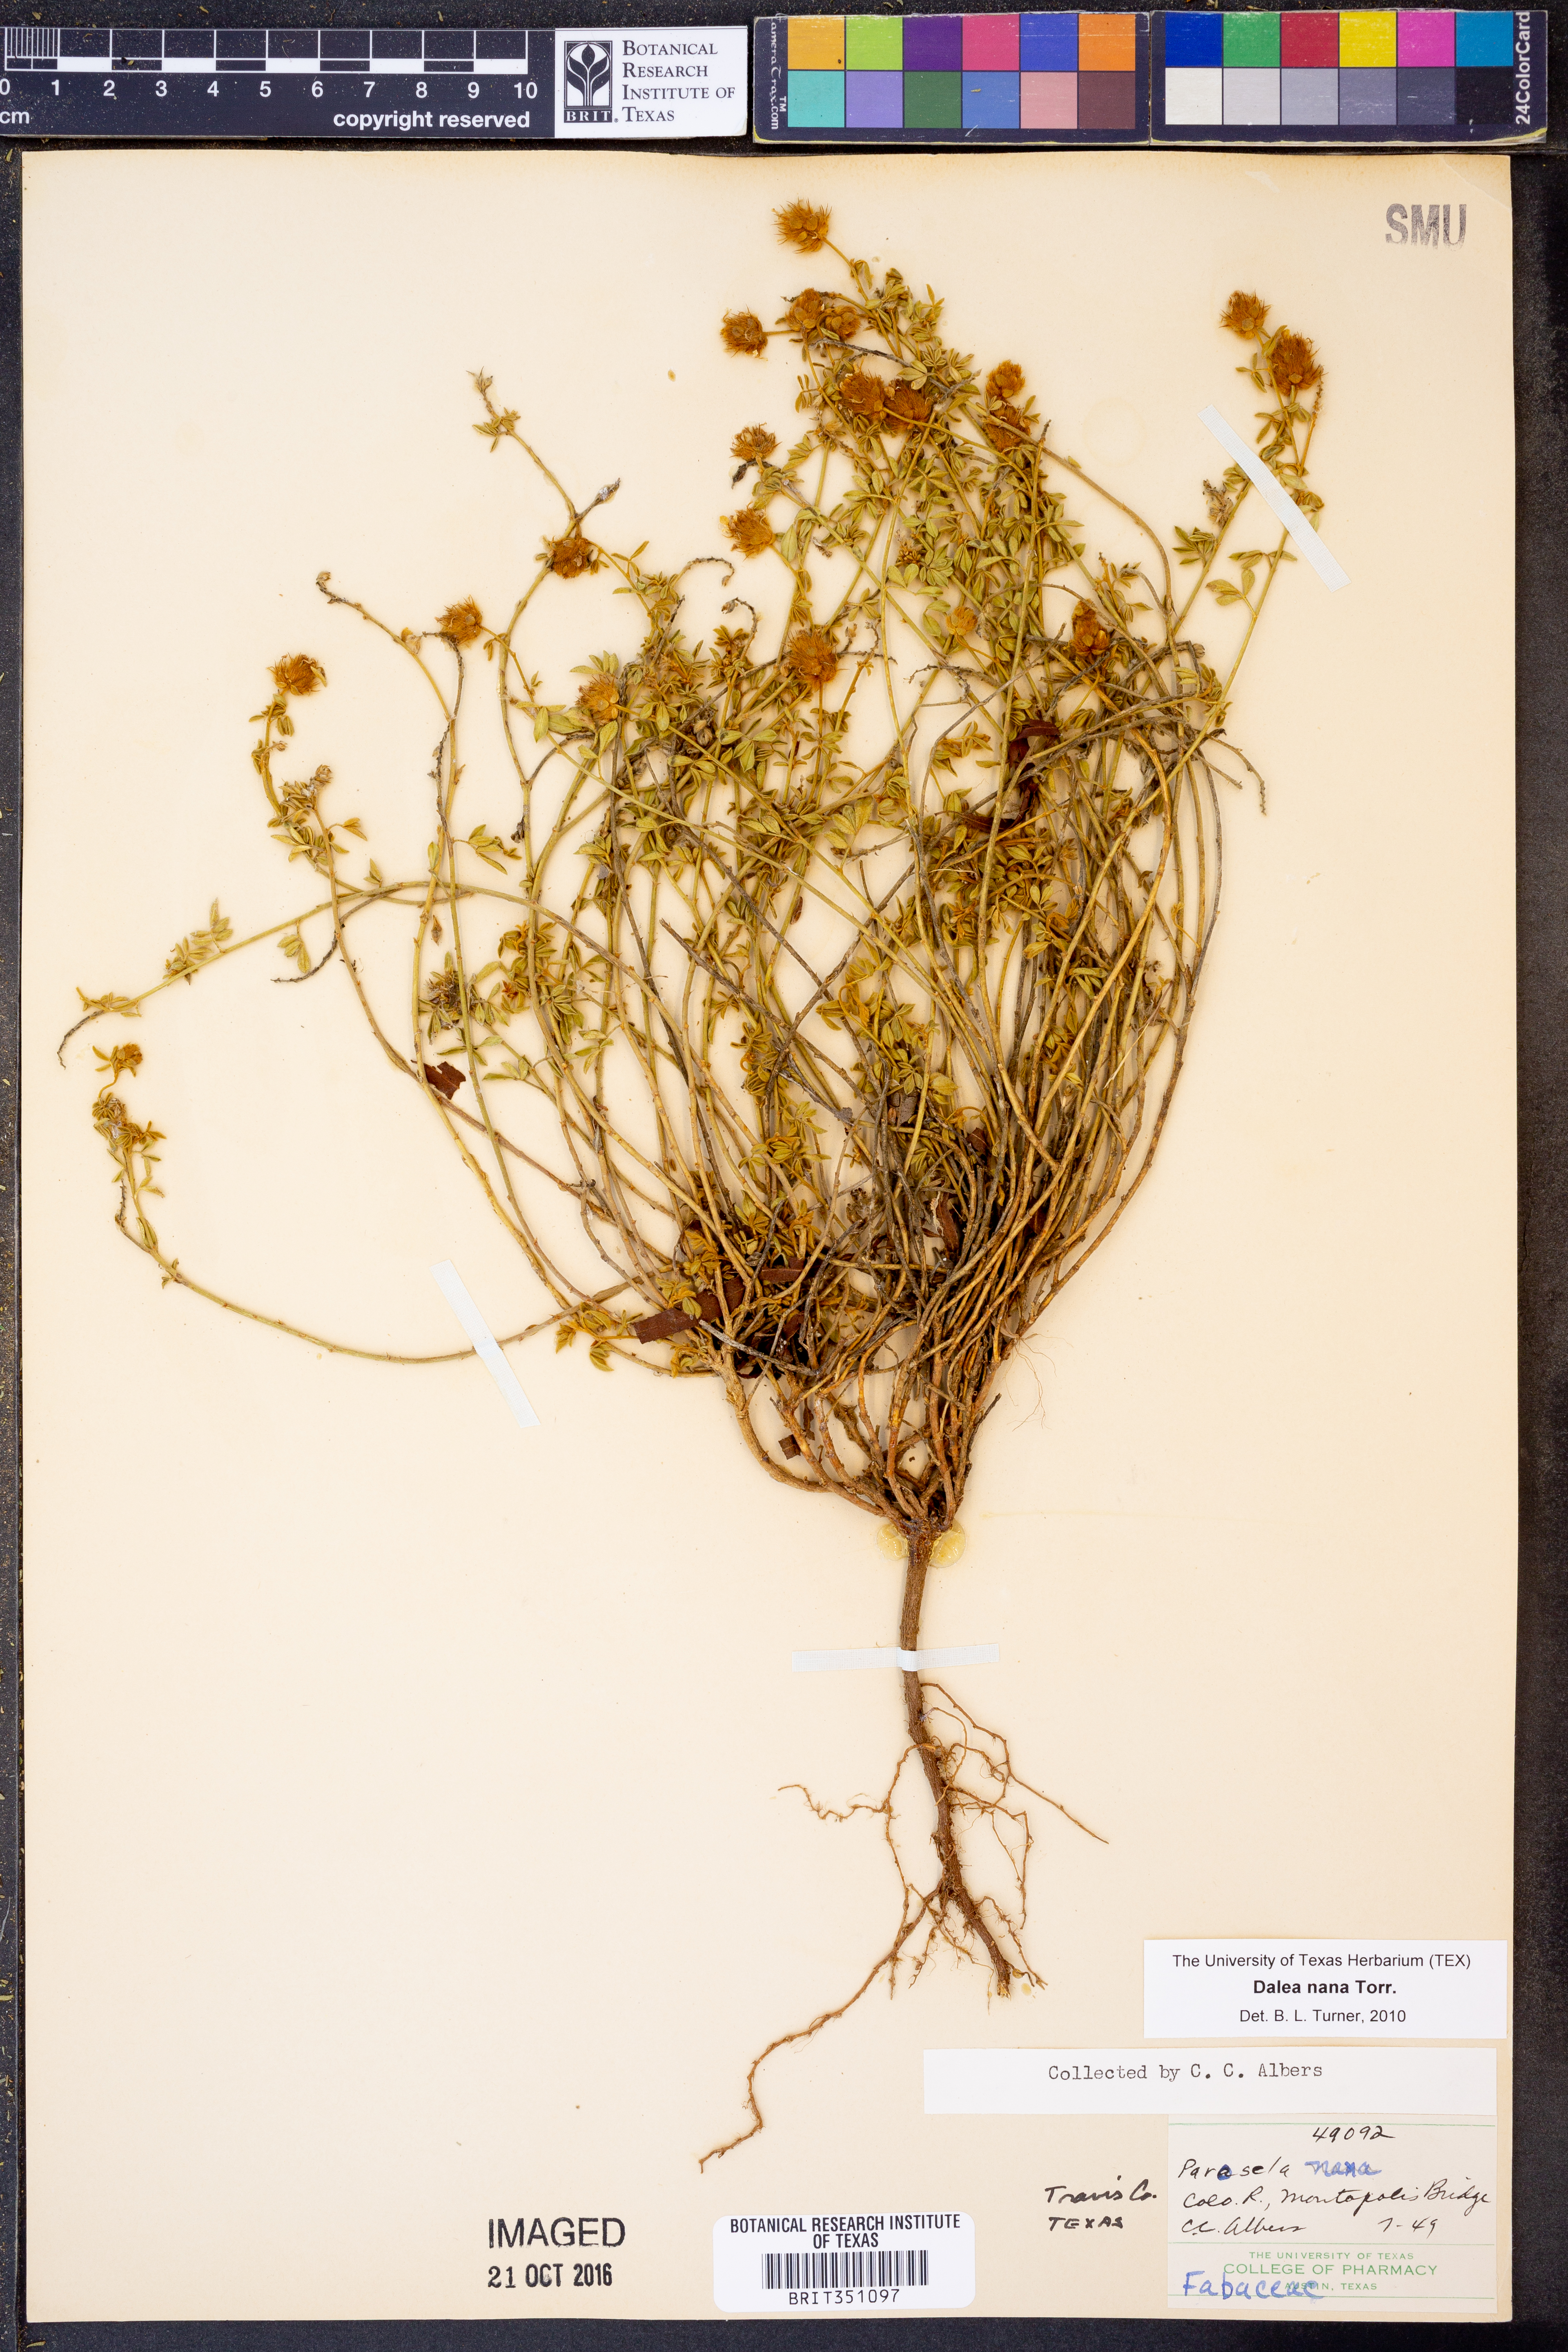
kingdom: Plantae
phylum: Tracheophyta
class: Magnoliopsida
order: Fabales
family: Fabaceae
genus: Dalea
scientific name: Dalea nana
